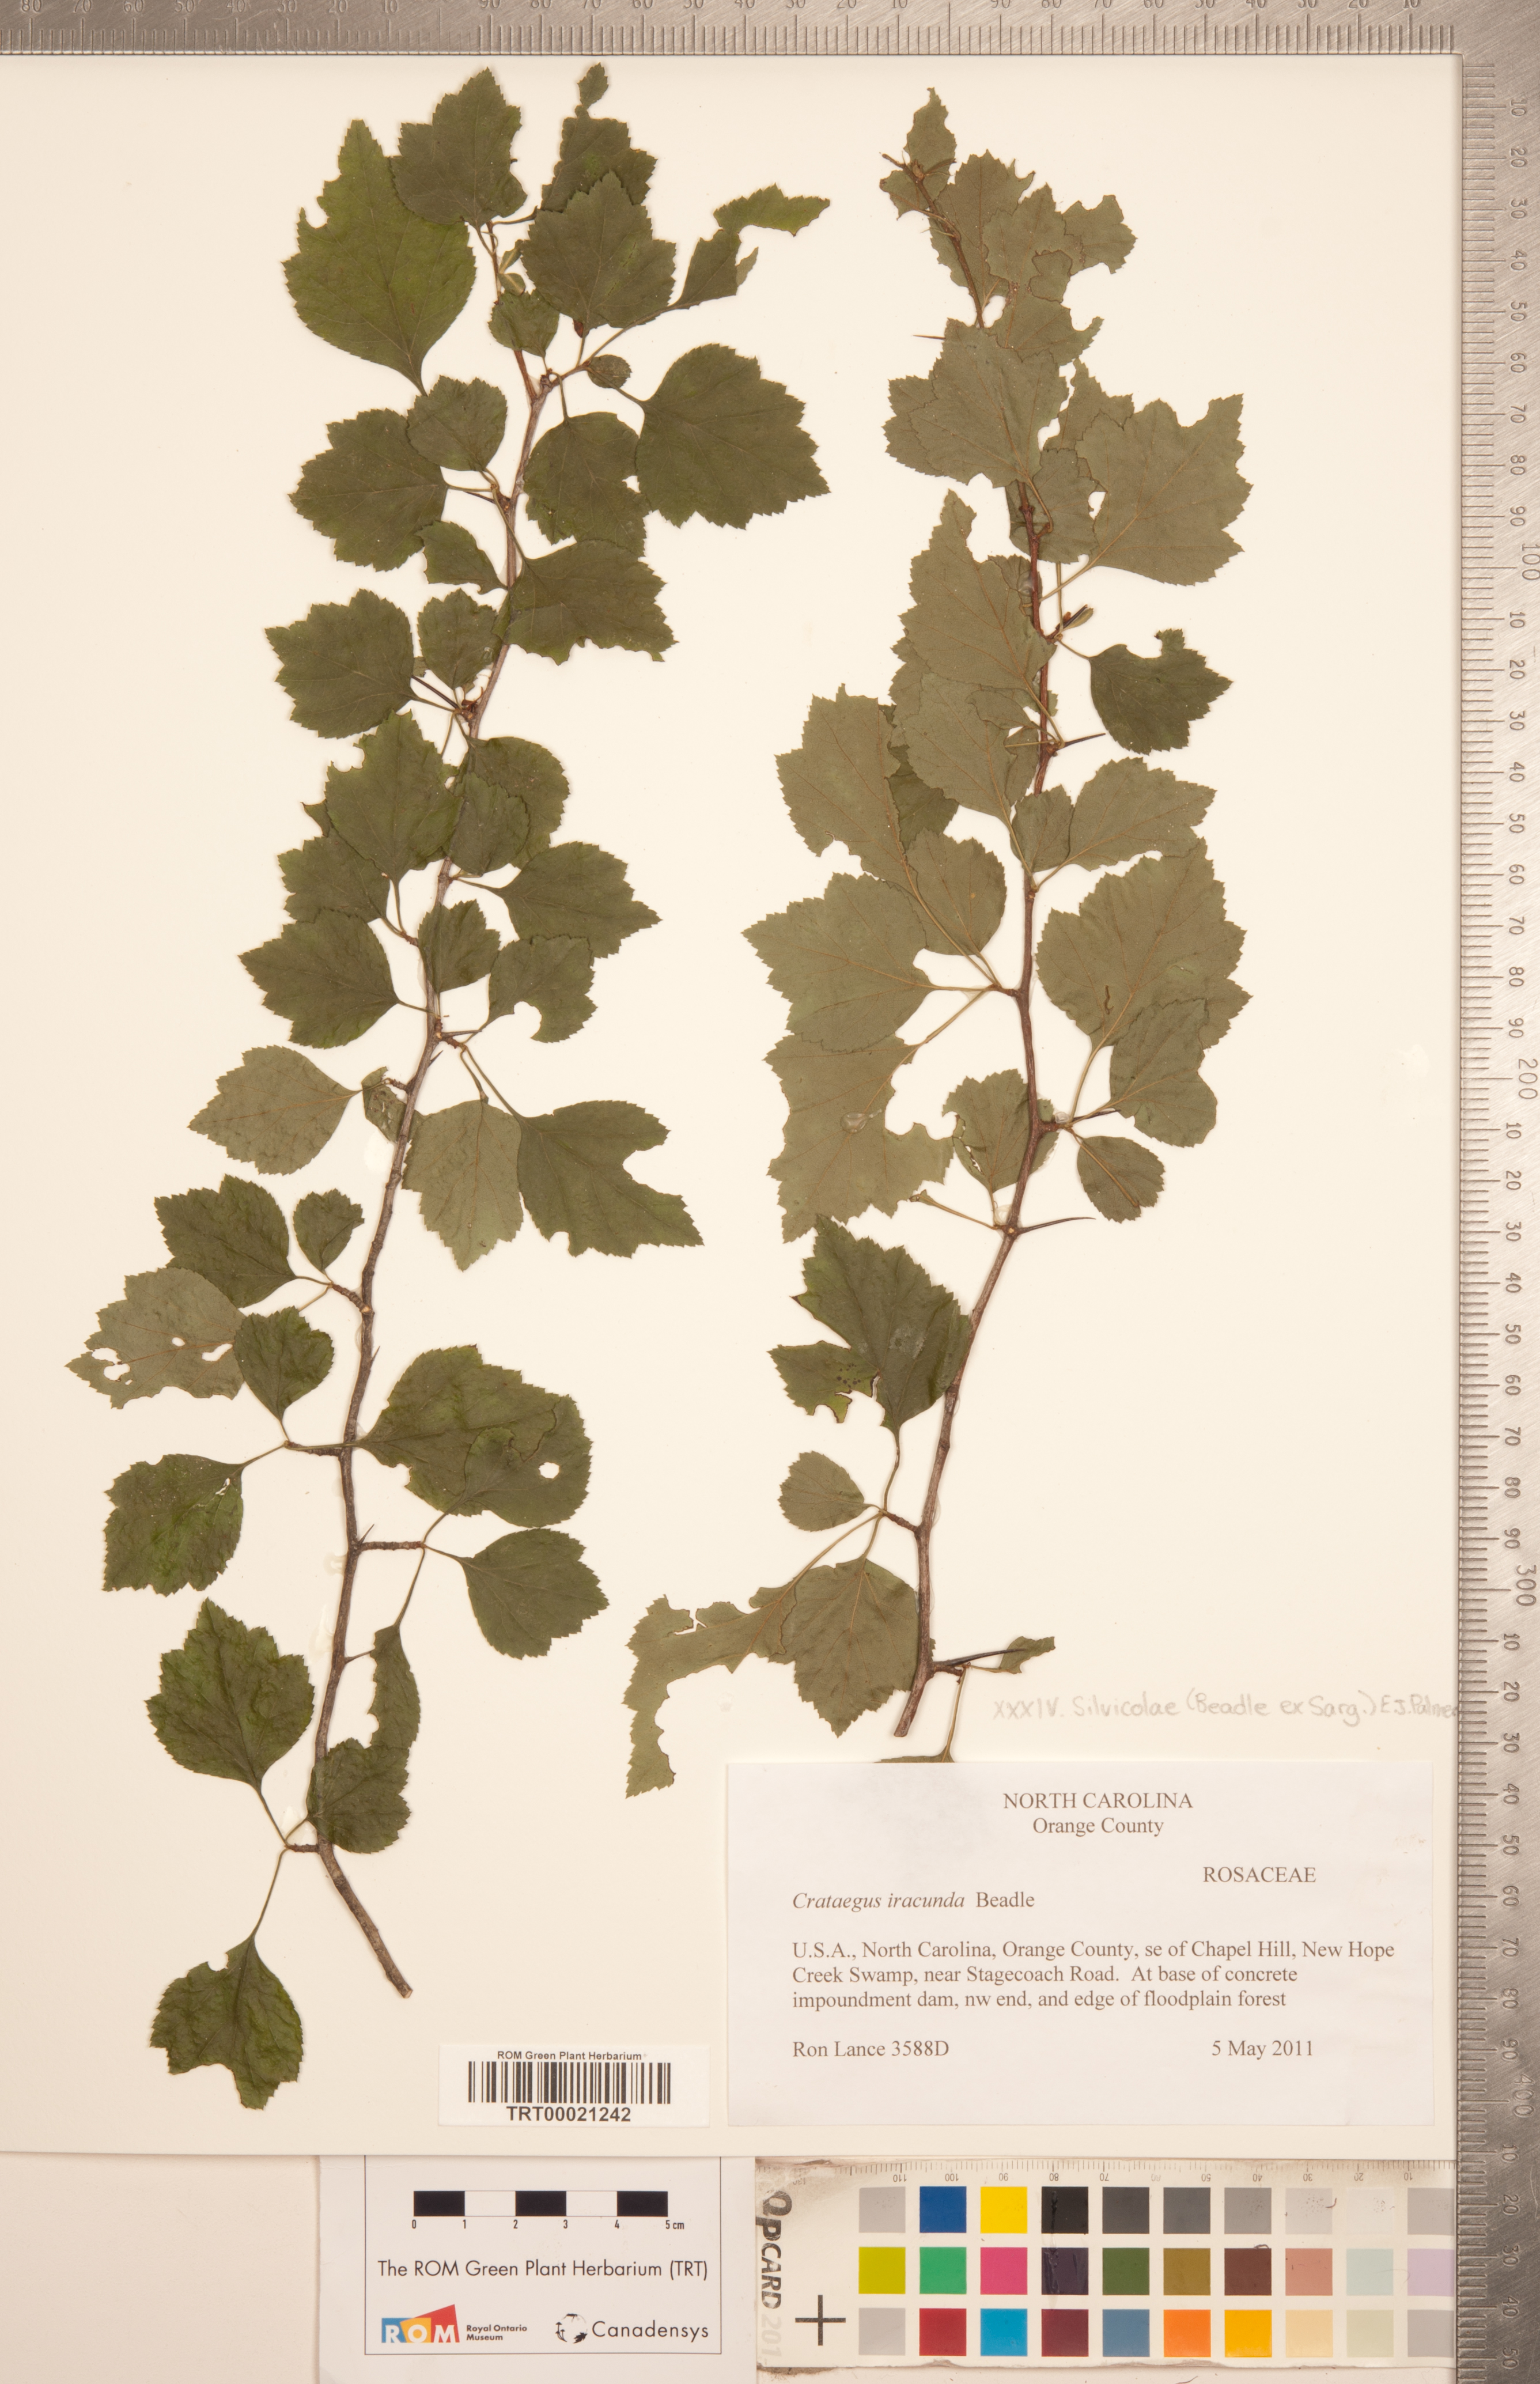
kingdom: Plantae
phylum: Tracheophyta
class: Magnoliopsida
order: Rosales
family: Rosaceae
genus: Crataegus
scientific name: Crataegus iracunda
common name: Stolon-bearing hawthorn
